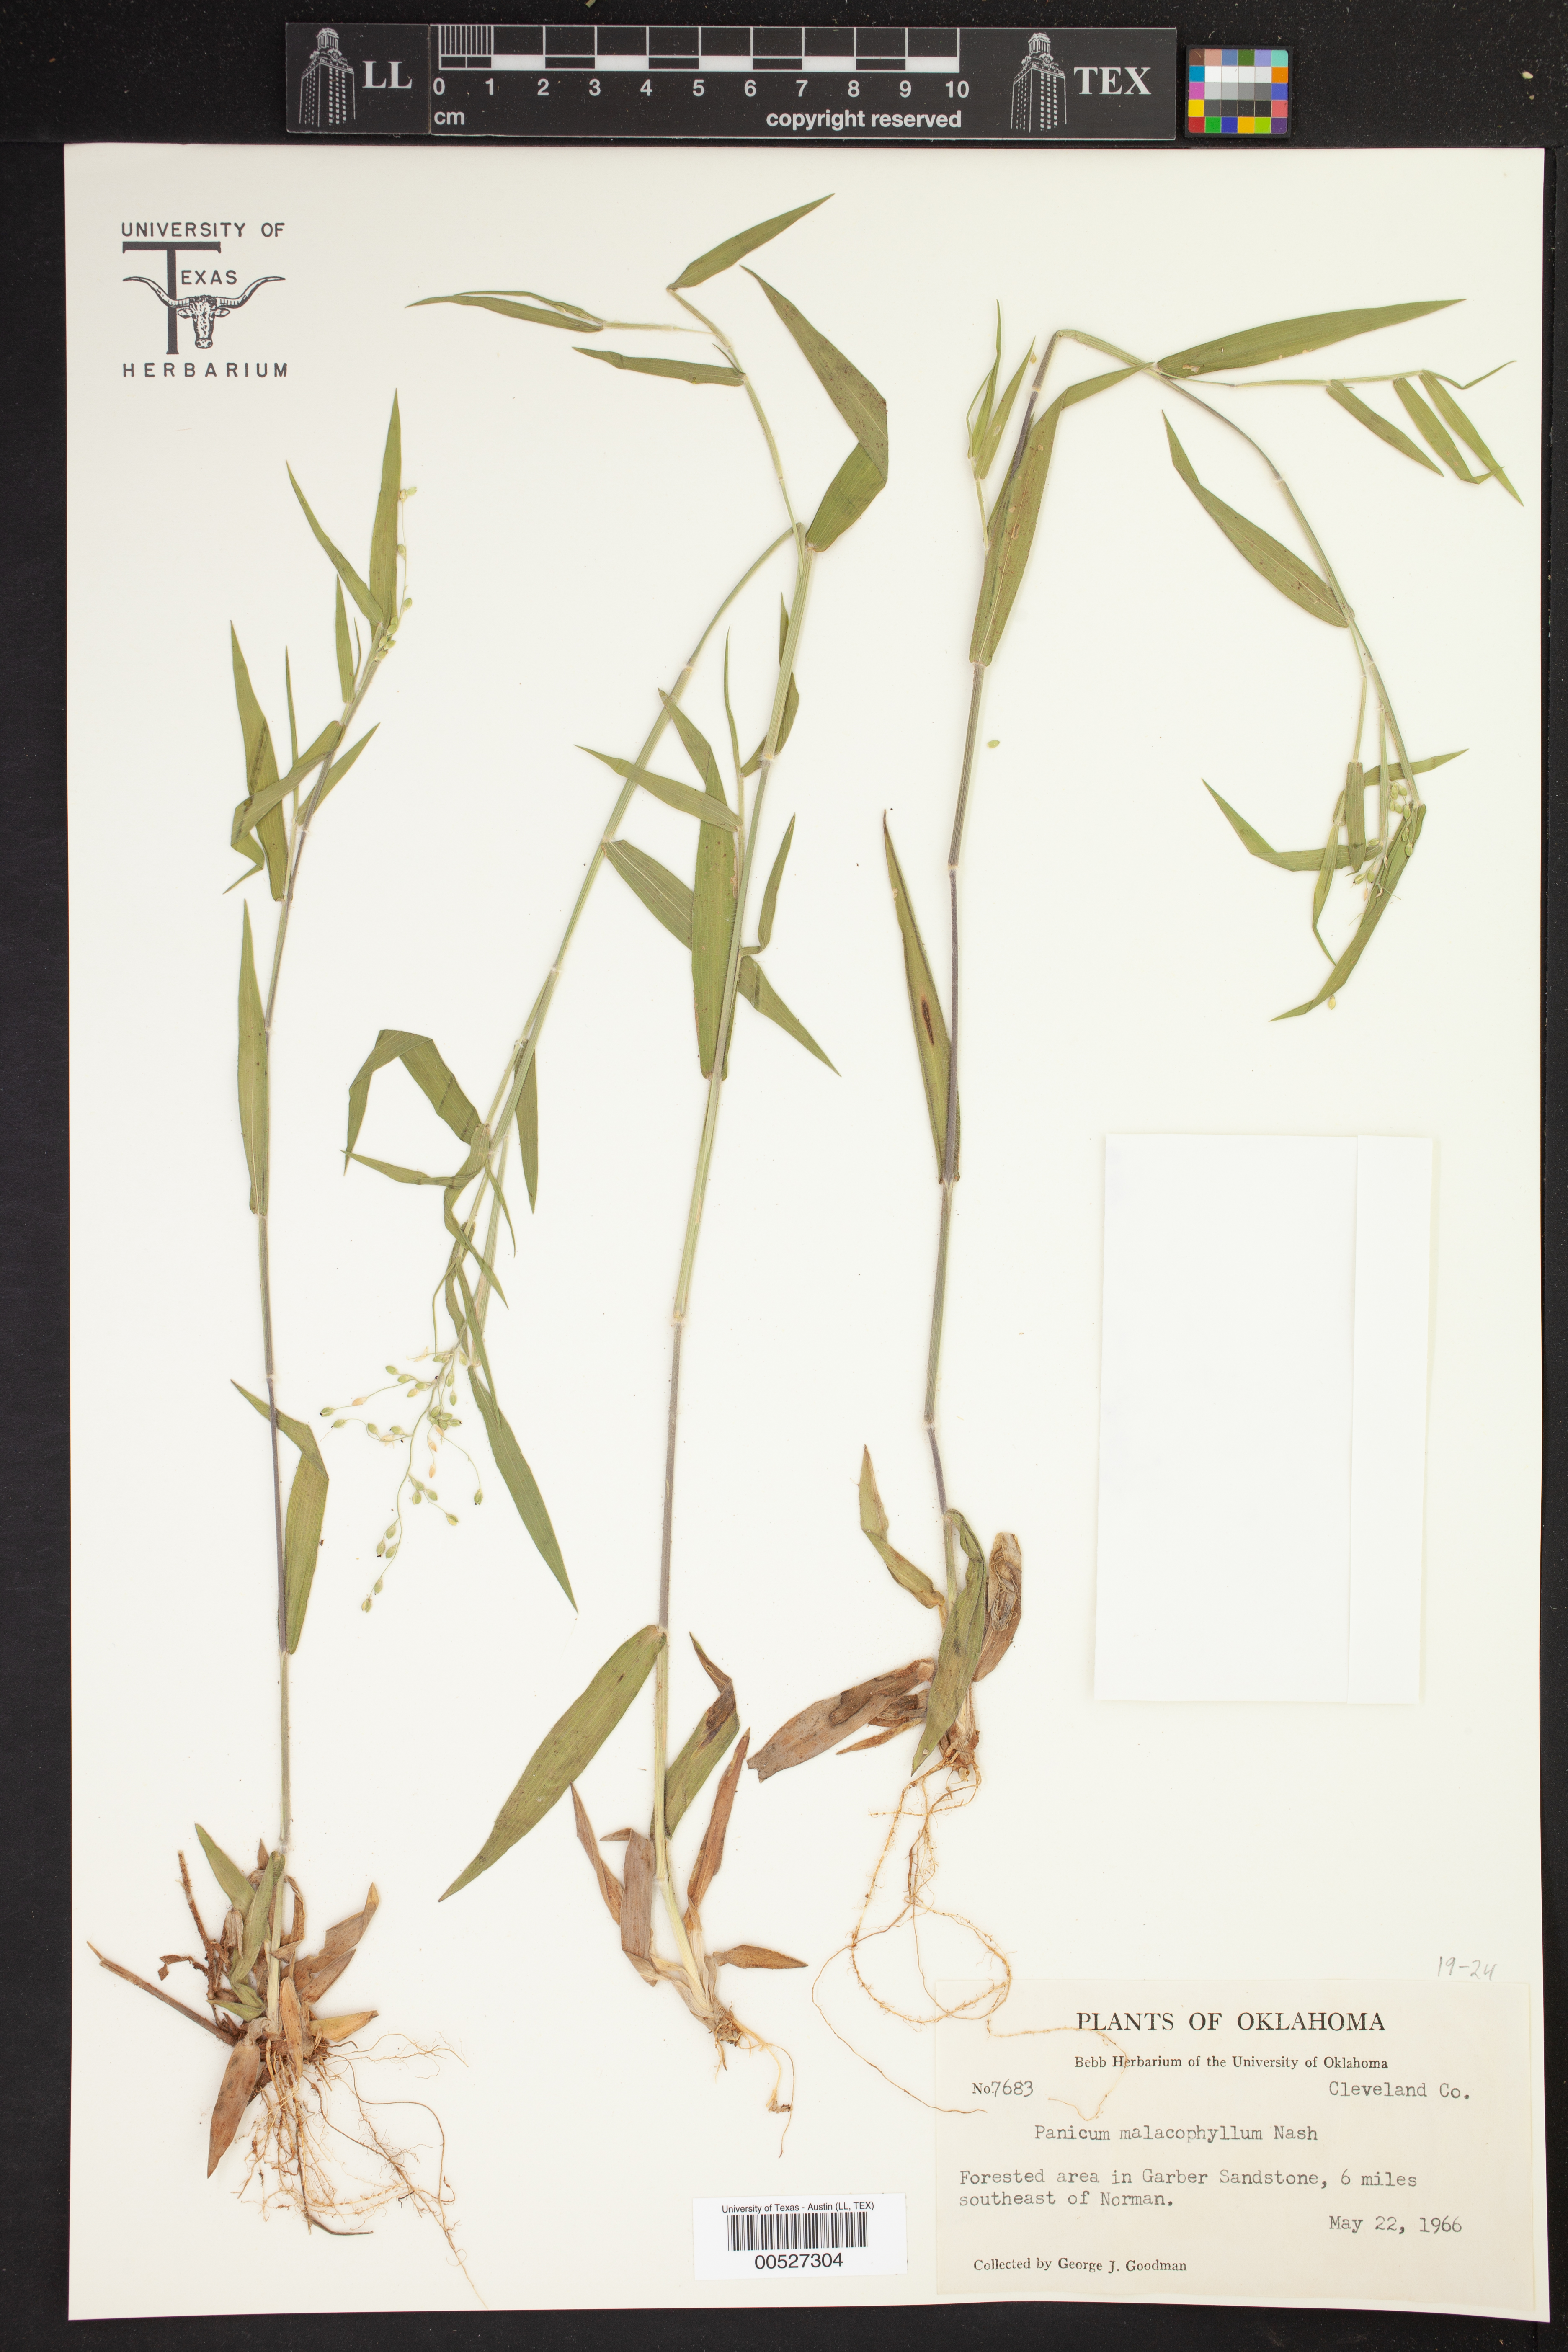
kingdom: Plantae
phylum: Tracheophyta
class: Liliopsida
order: Poales
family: Poaceae
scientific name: Poaceae
